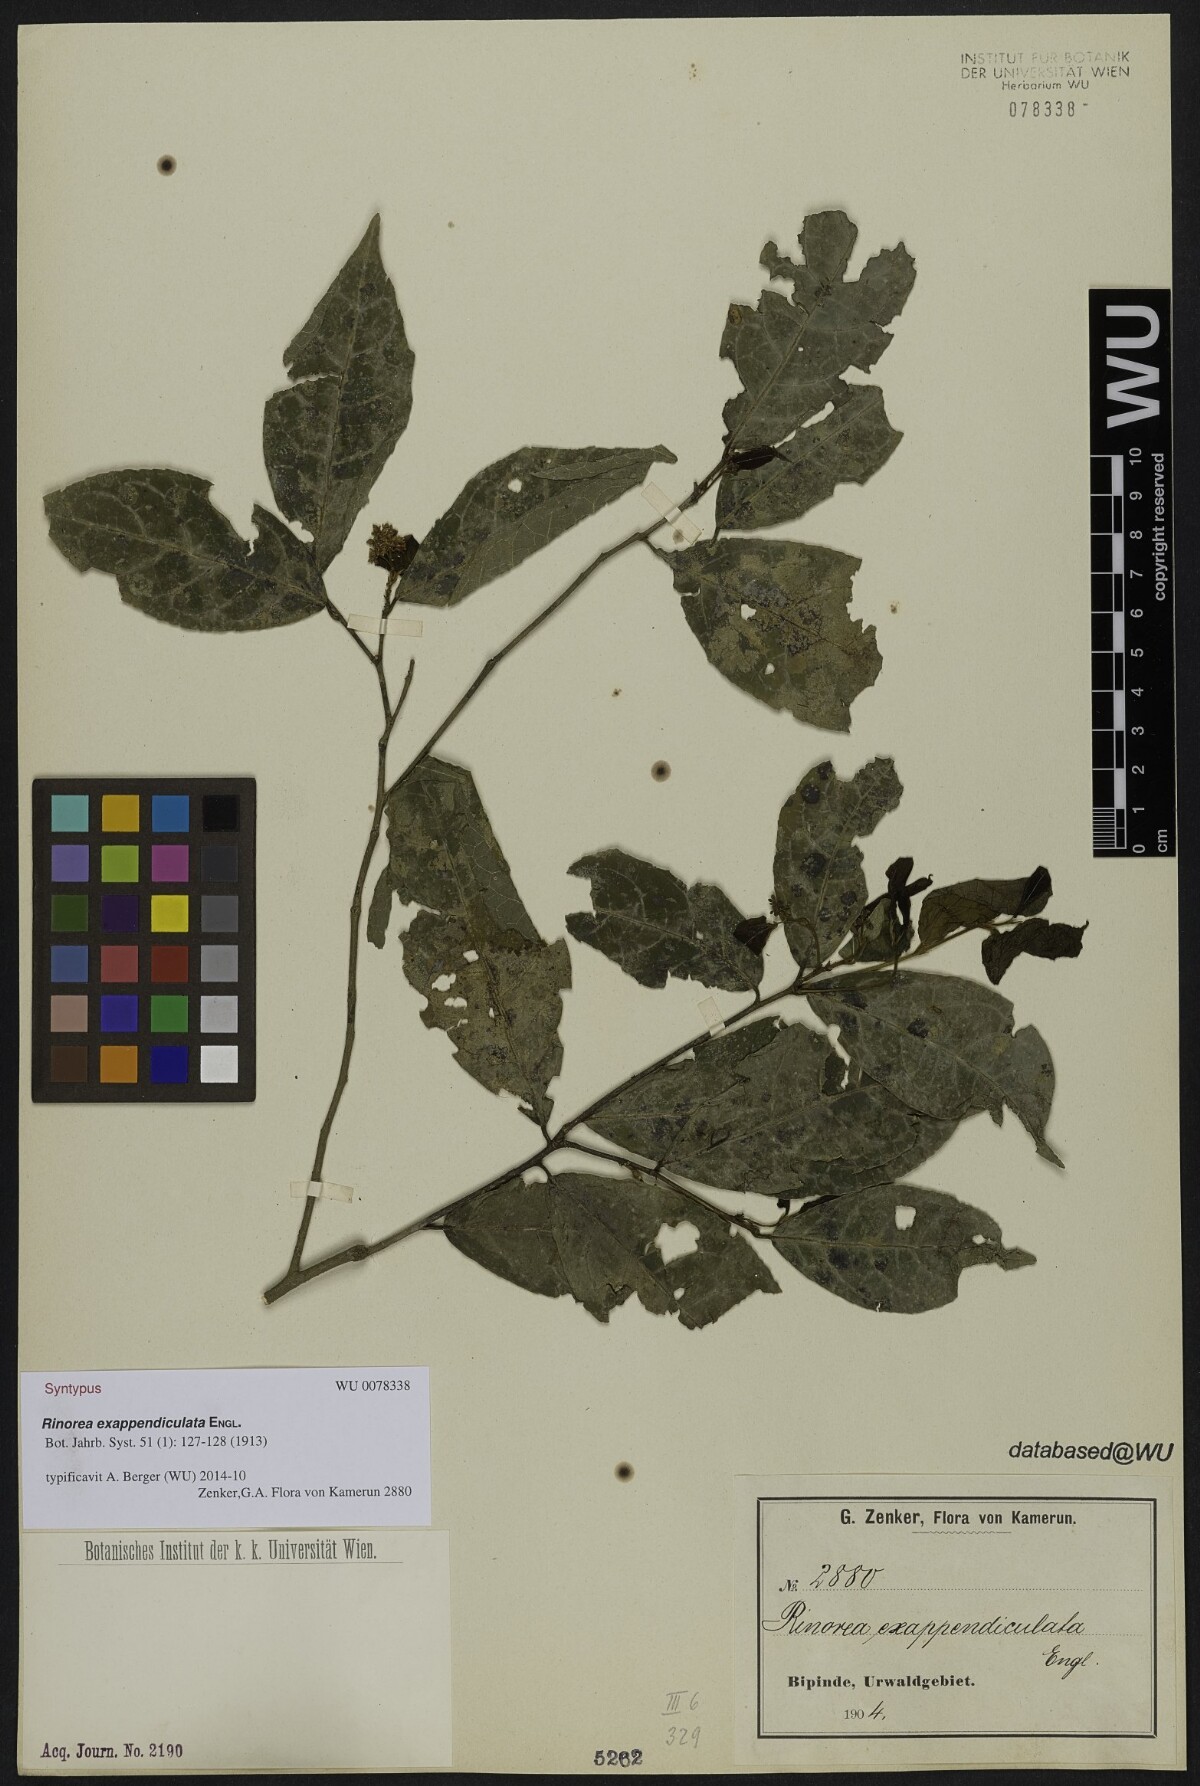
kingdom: Plantae
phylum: Tracheophyta
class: Magnoliopsida
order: Malpighiales
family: Violaceae
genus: Rinorea
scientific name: Rinorea exappendiculata
